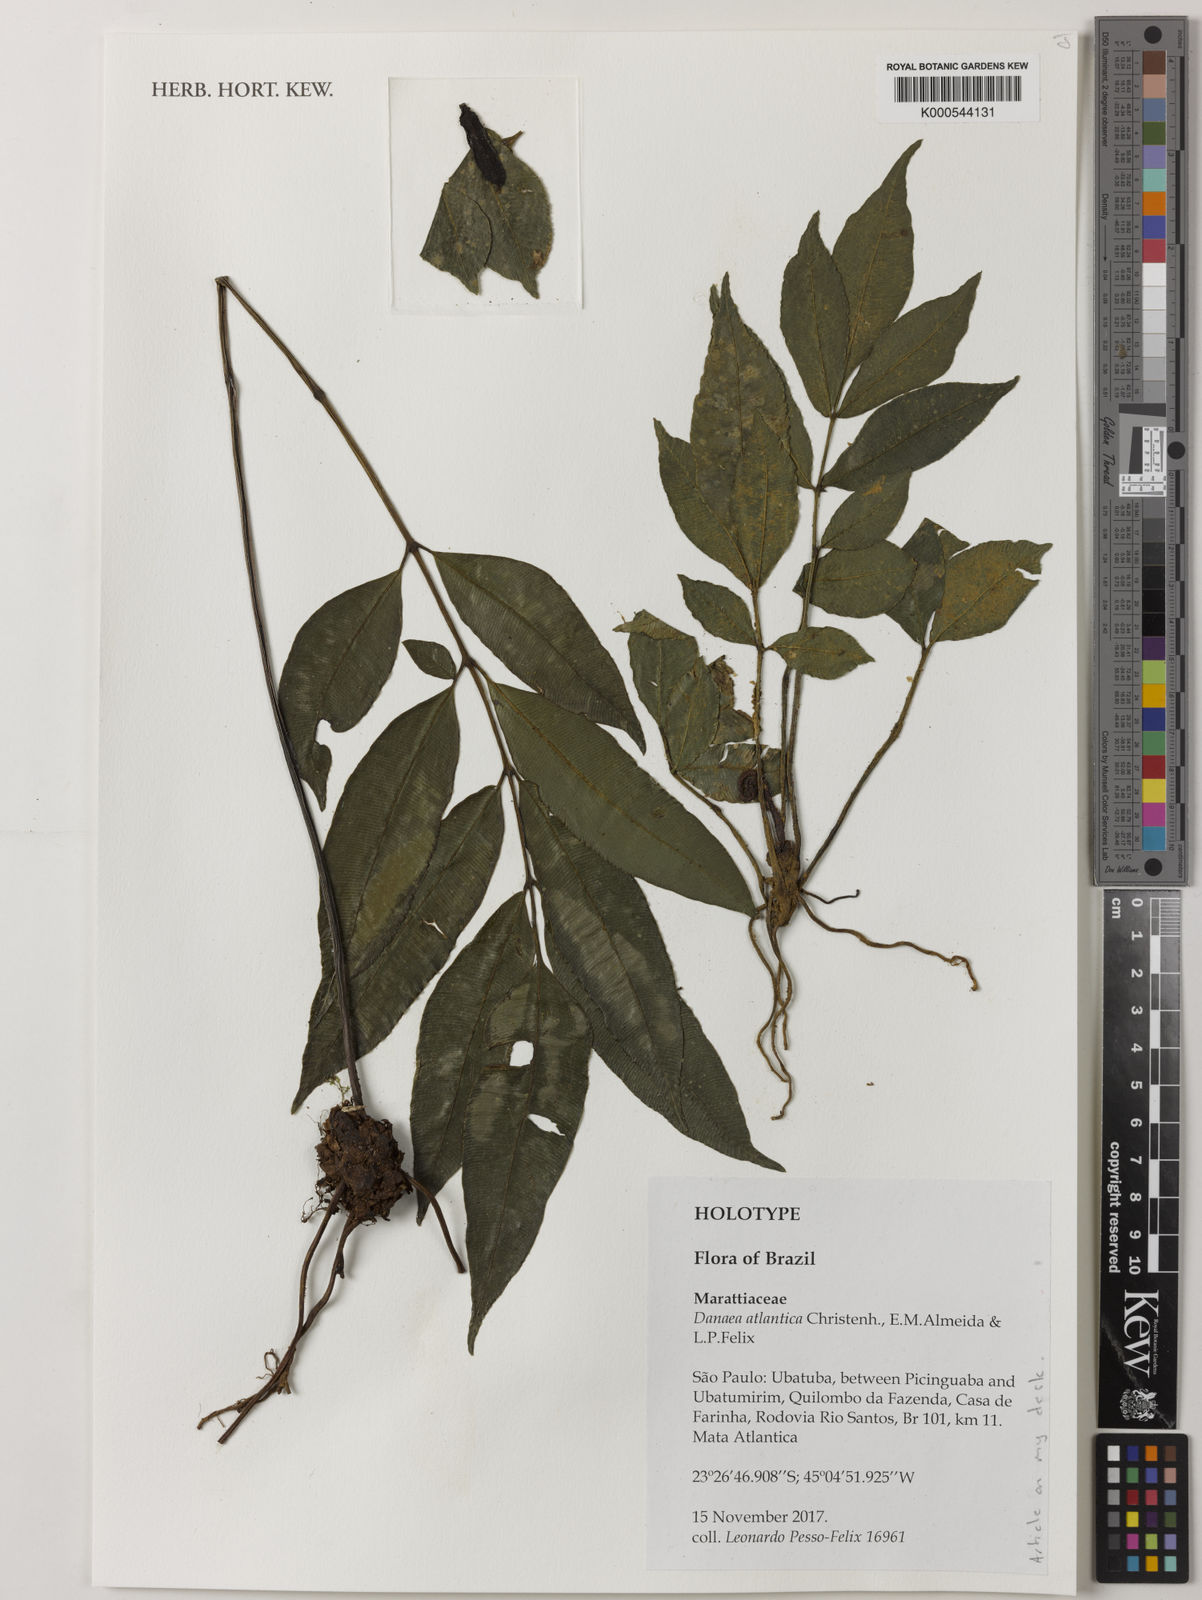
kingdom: Plantae
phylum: Tracheophyta
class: Polypodiopsida
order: Marattiales
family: Marattiaceae
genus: Danaea
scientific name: Danaea
